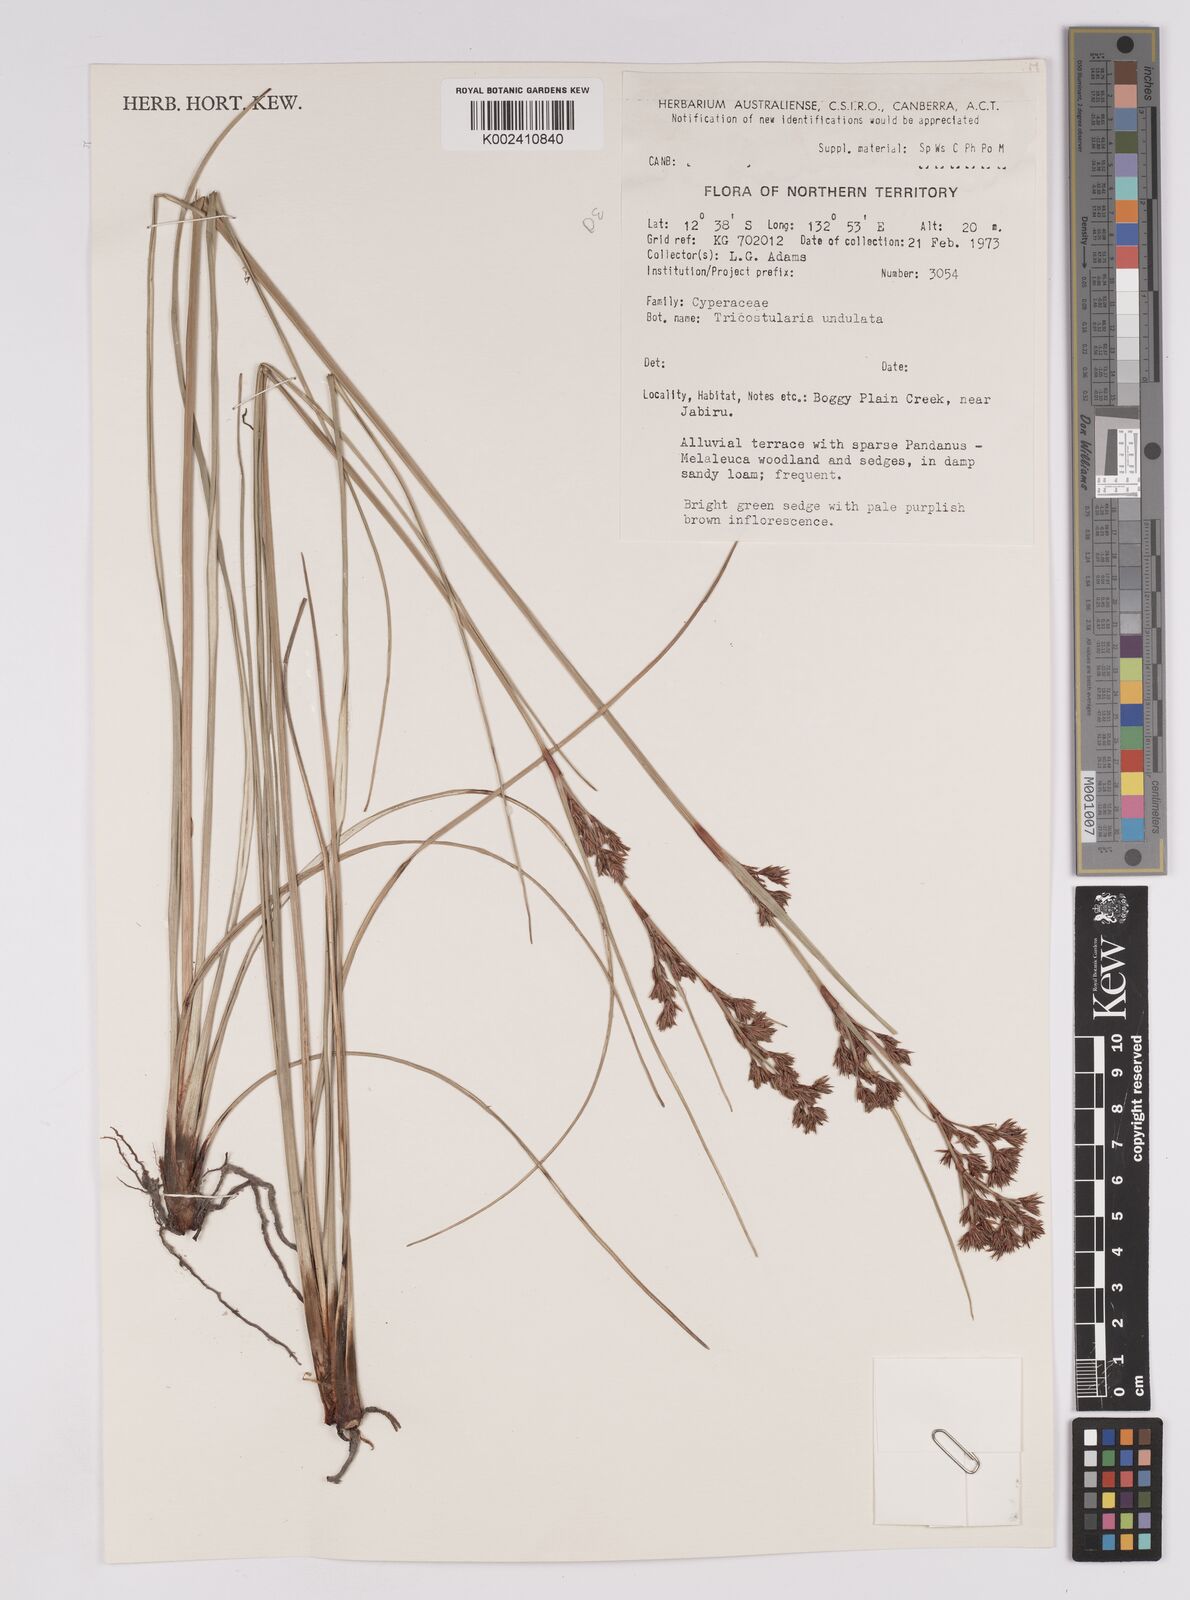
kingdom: Plantae
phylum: Tracheophyta
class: Liliopsida
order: Poales
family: Cyperaceae
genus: Anthelepis
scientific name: Anthelepis undulata
